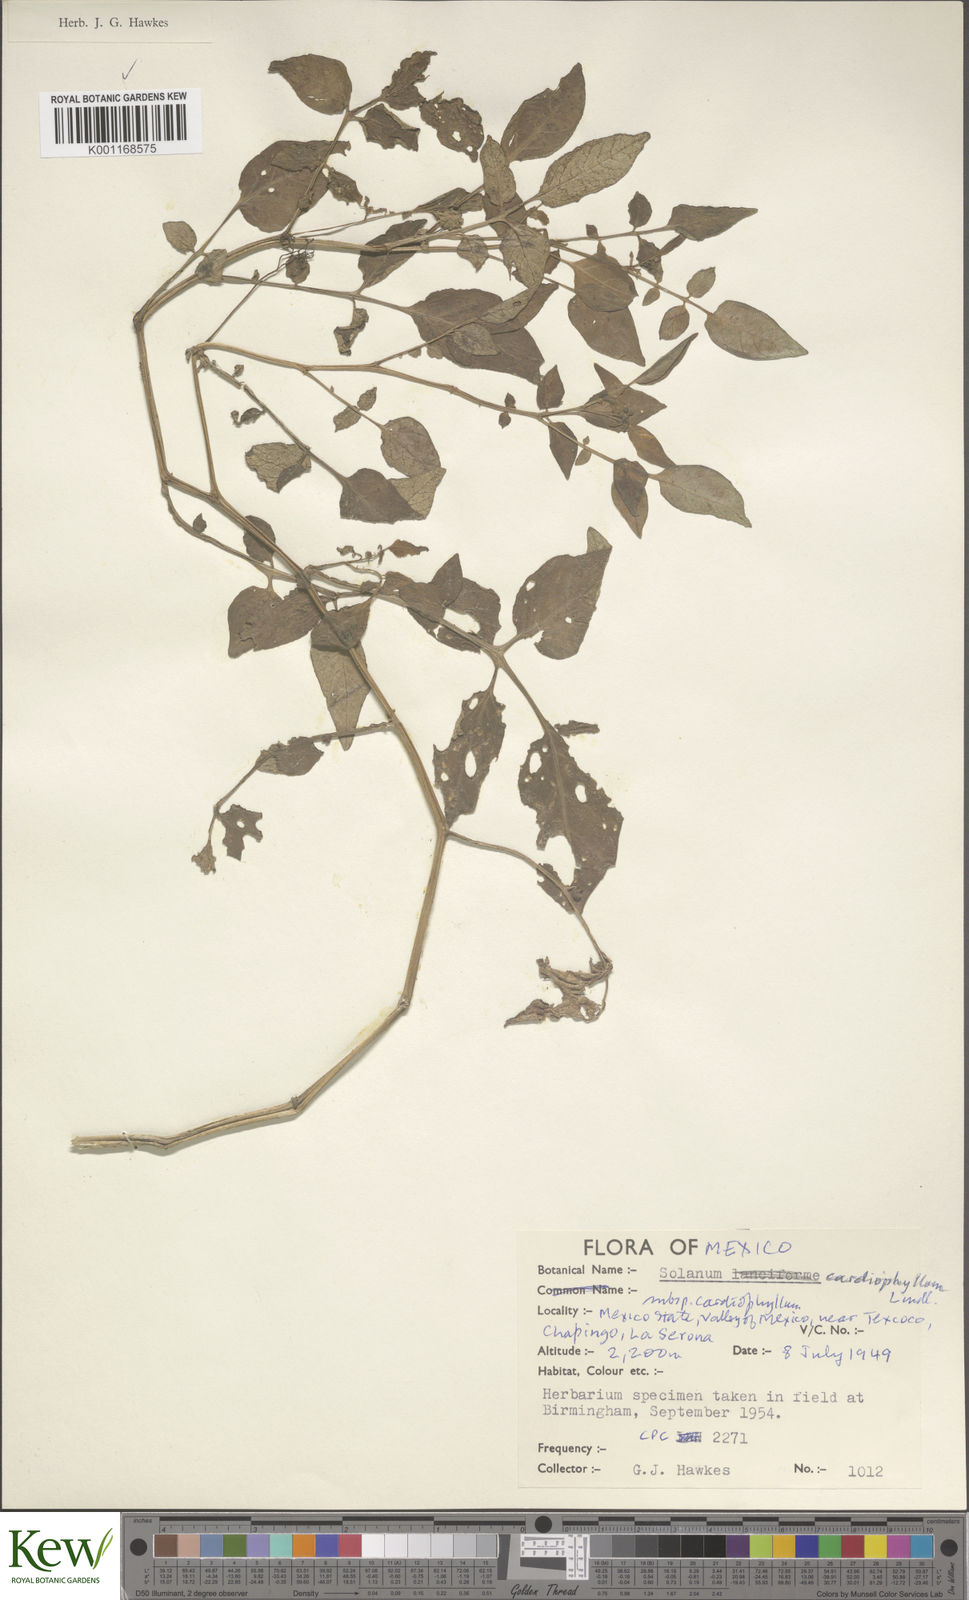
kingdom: Plantae
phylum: Tracheophyta
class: Magnoliopsida
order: Solanales
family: Solanaceae
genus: Solanum
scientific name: Solanum cardiophyllum
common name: Heartleaf horsenettle
